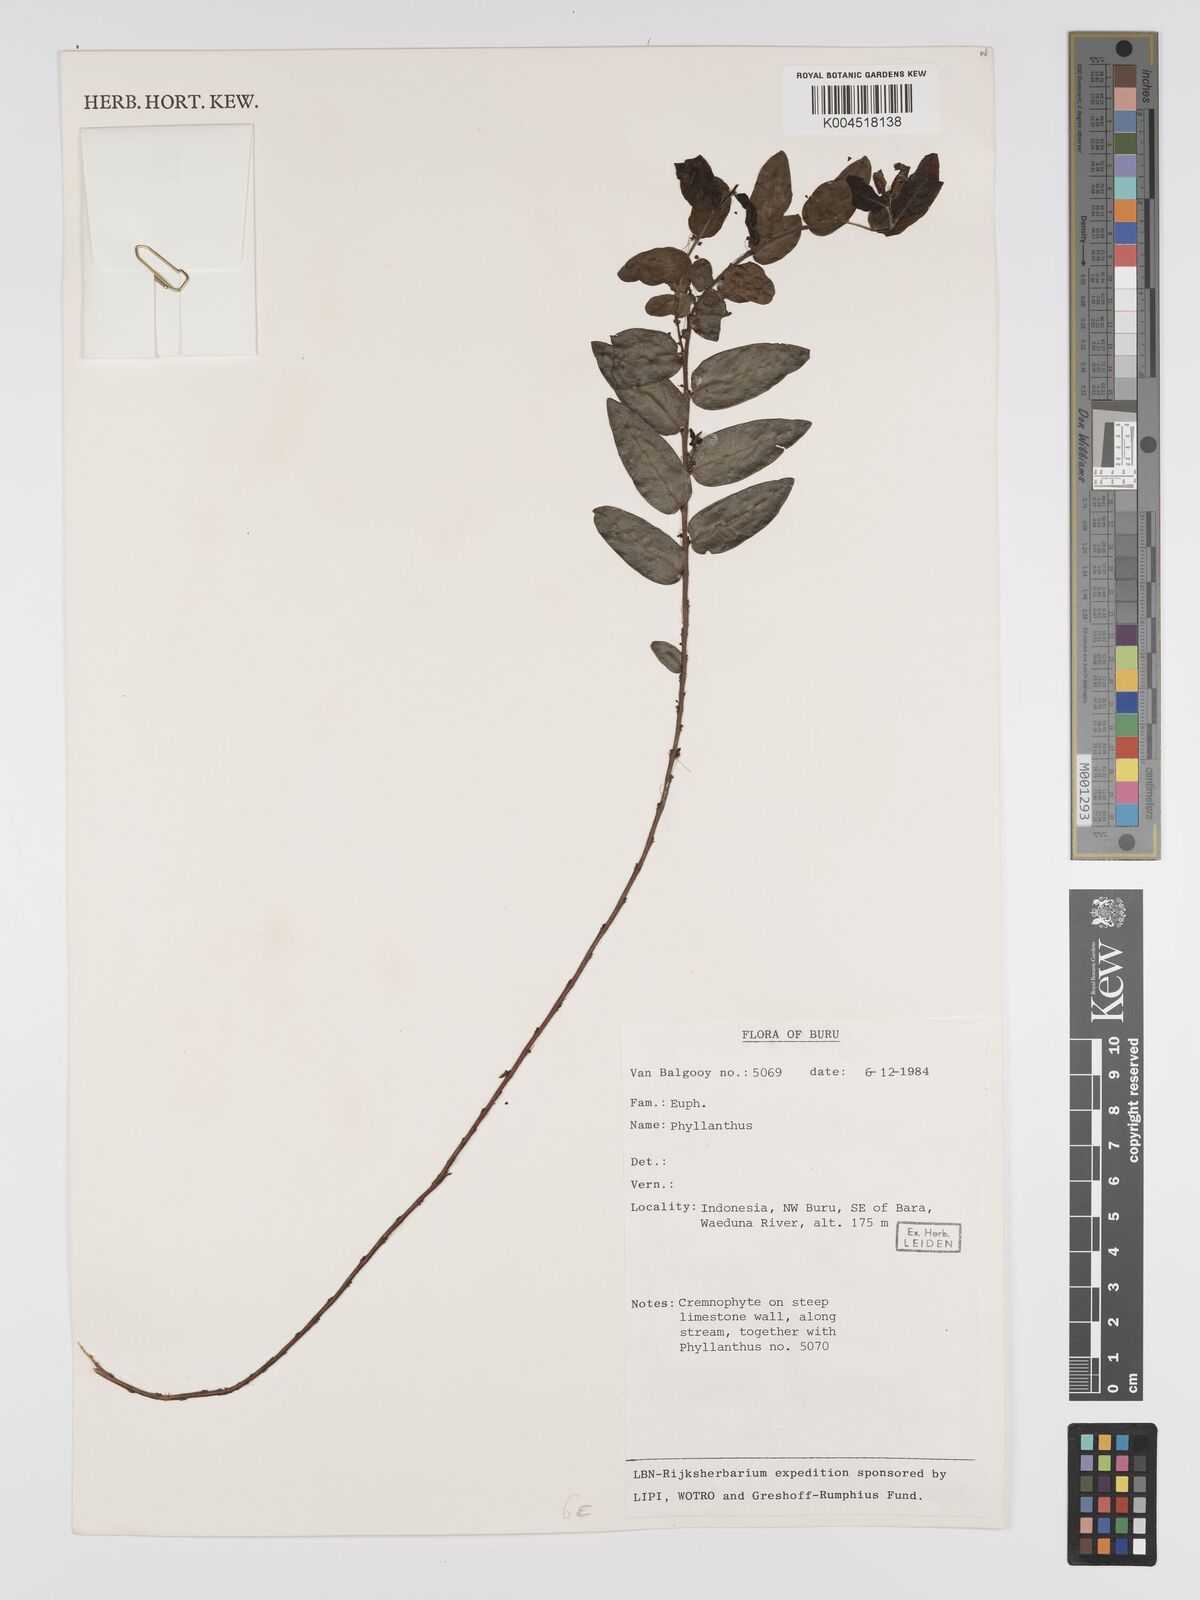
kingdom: Plantae
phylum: Tracheophyta
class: Magnoliopsida
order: Malpighiales
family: Phyllanthaceae
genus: Phyllanthus
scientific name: Phyllanthus
